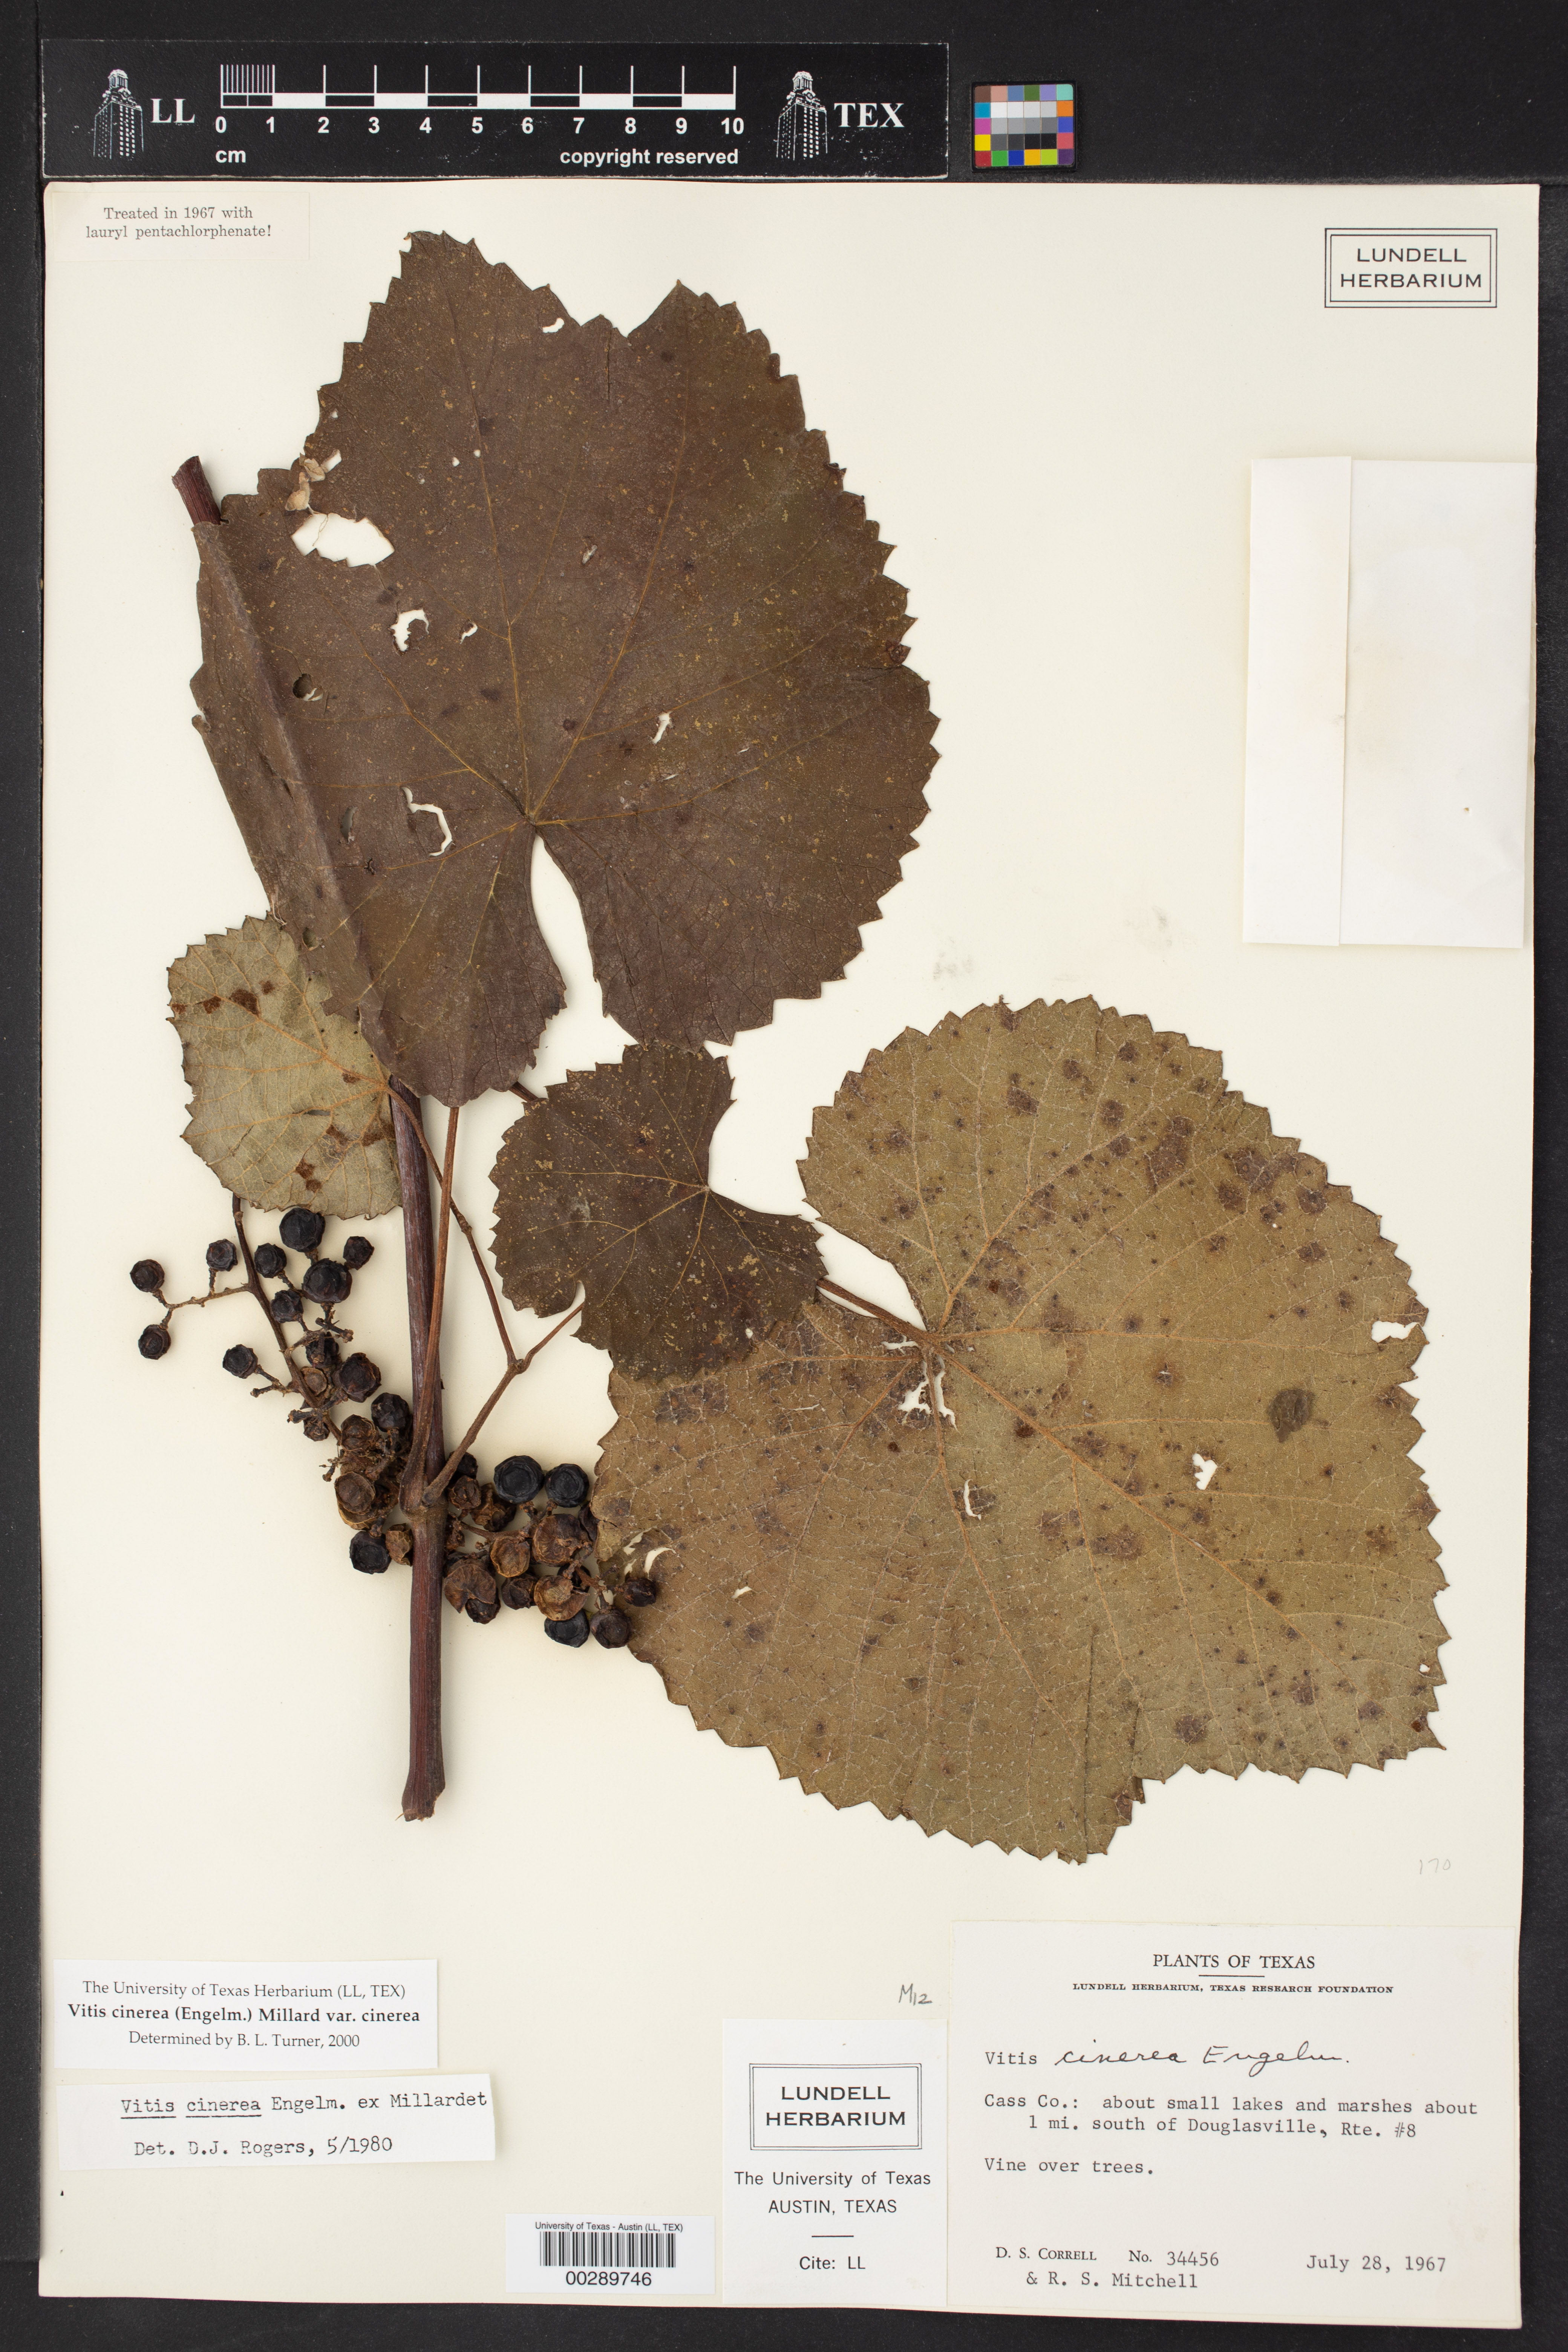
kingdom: Plantae
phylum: Tracheophyta
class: Magnoliopsida
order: Vitales
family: Vitaceae
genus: Vitis
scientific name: Vitis cinerea
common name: Ashy grape
